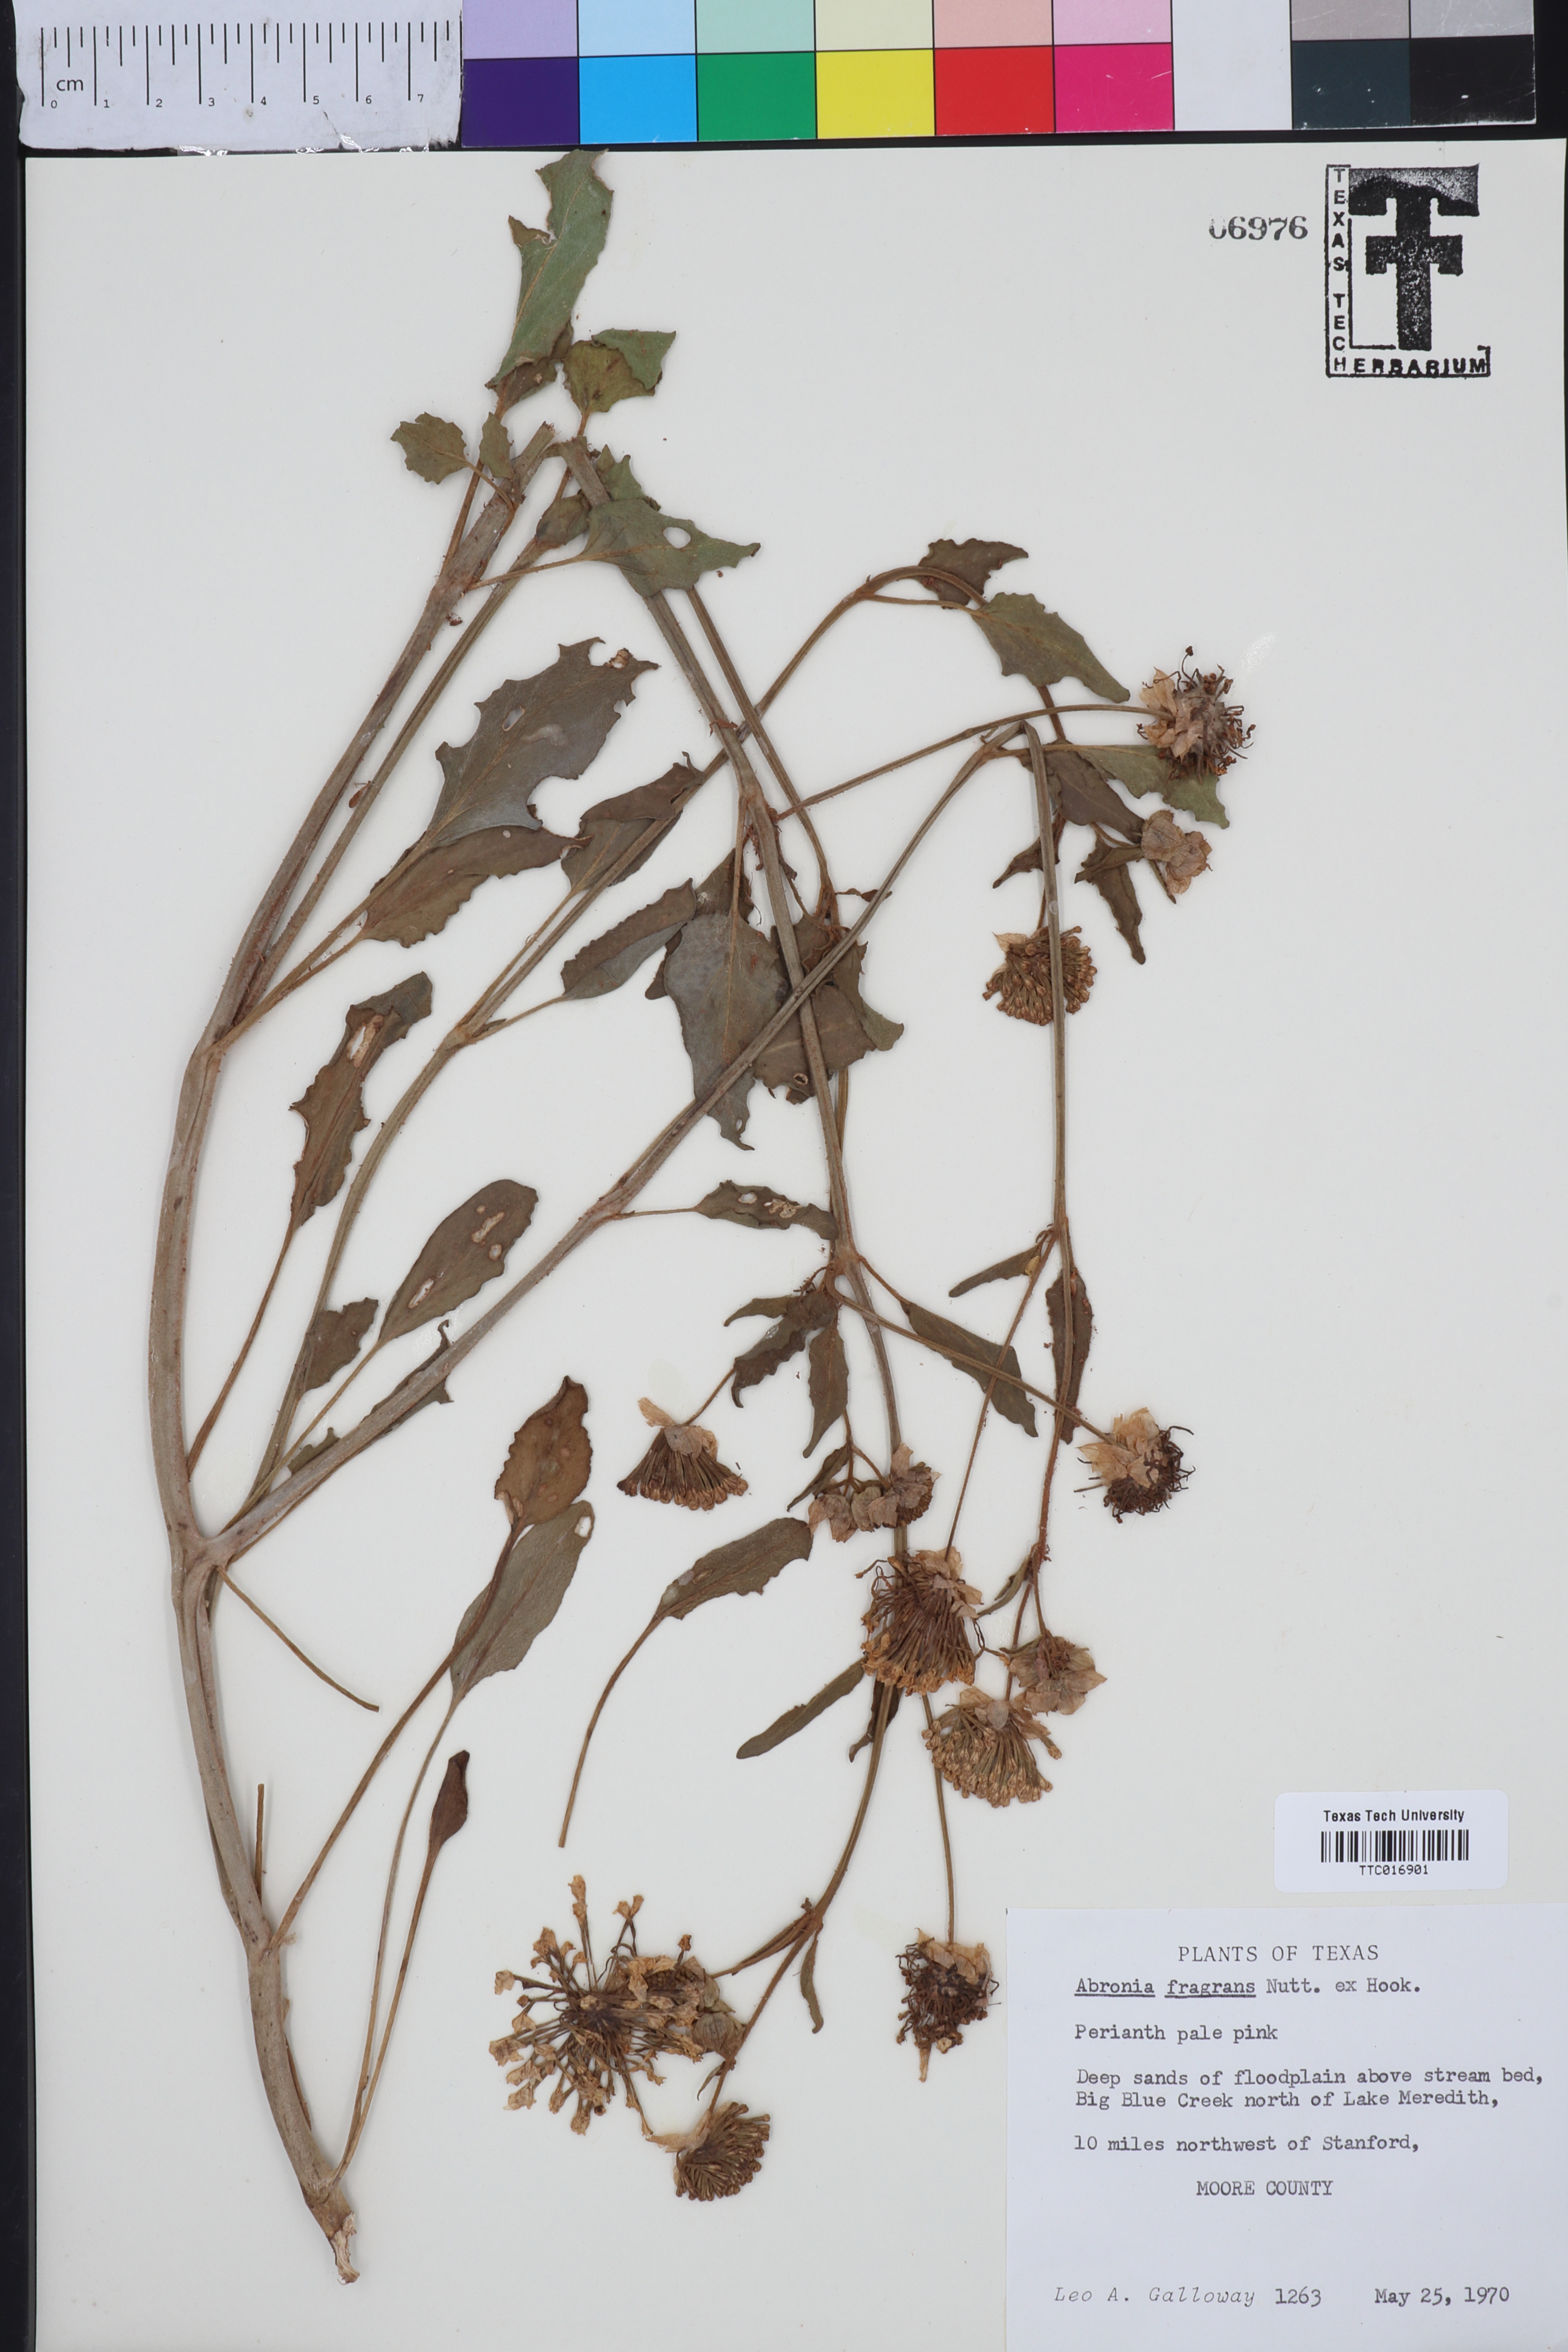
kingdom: Plantae
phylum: Tracheophyta
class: Magnoliopsida
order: Caryophyllales
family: Nyctaginaceae
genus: Abronia
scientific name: Abronia fragrans
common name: Fragrant sand-verbena
